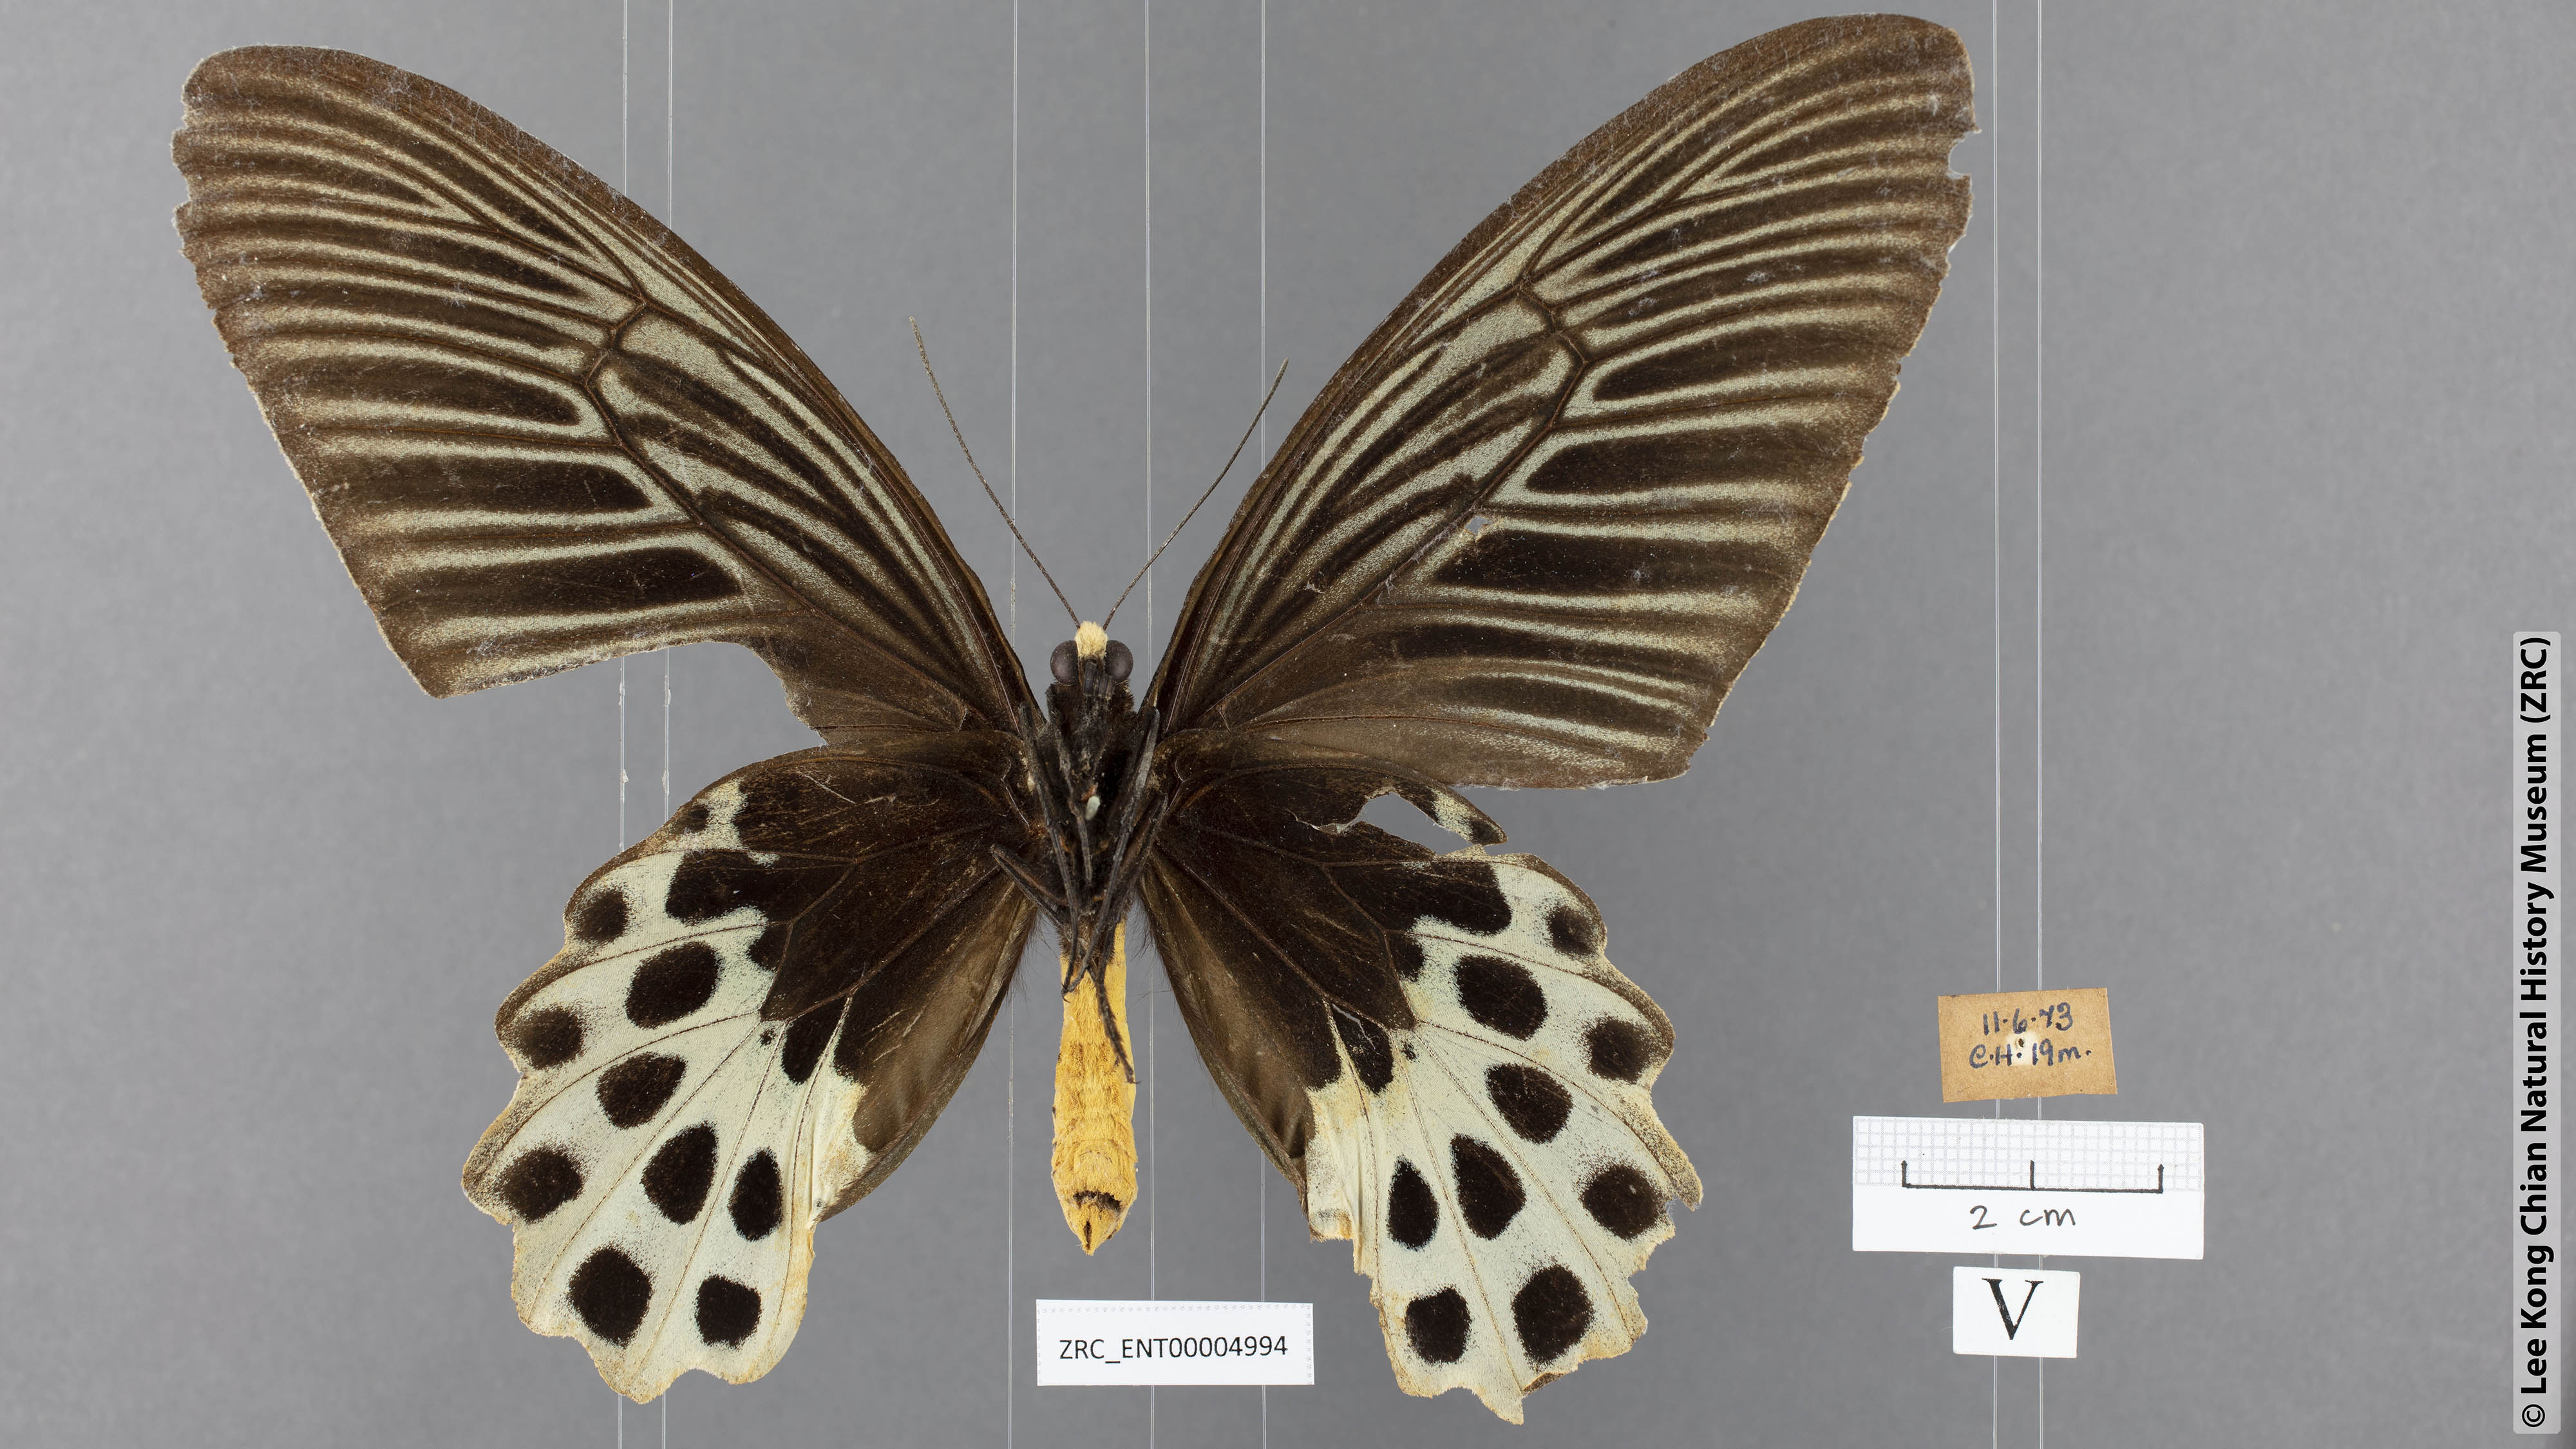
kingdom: Animalia
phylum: Arthropoda
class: Insecta
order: Lepidoptera
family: Papilionidae
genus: Atrophaneura
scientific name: Atrophaneura sycorax
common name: Whitehead batwing
